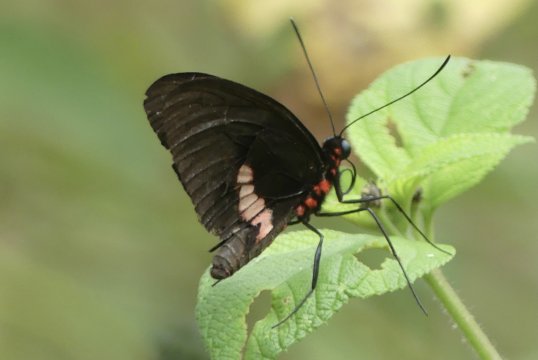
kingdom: Animalia
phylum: Arthropoda
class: Insecta
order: Lepidoptera
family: Papilionidae
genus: Parides
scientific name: Parides eurimedes
